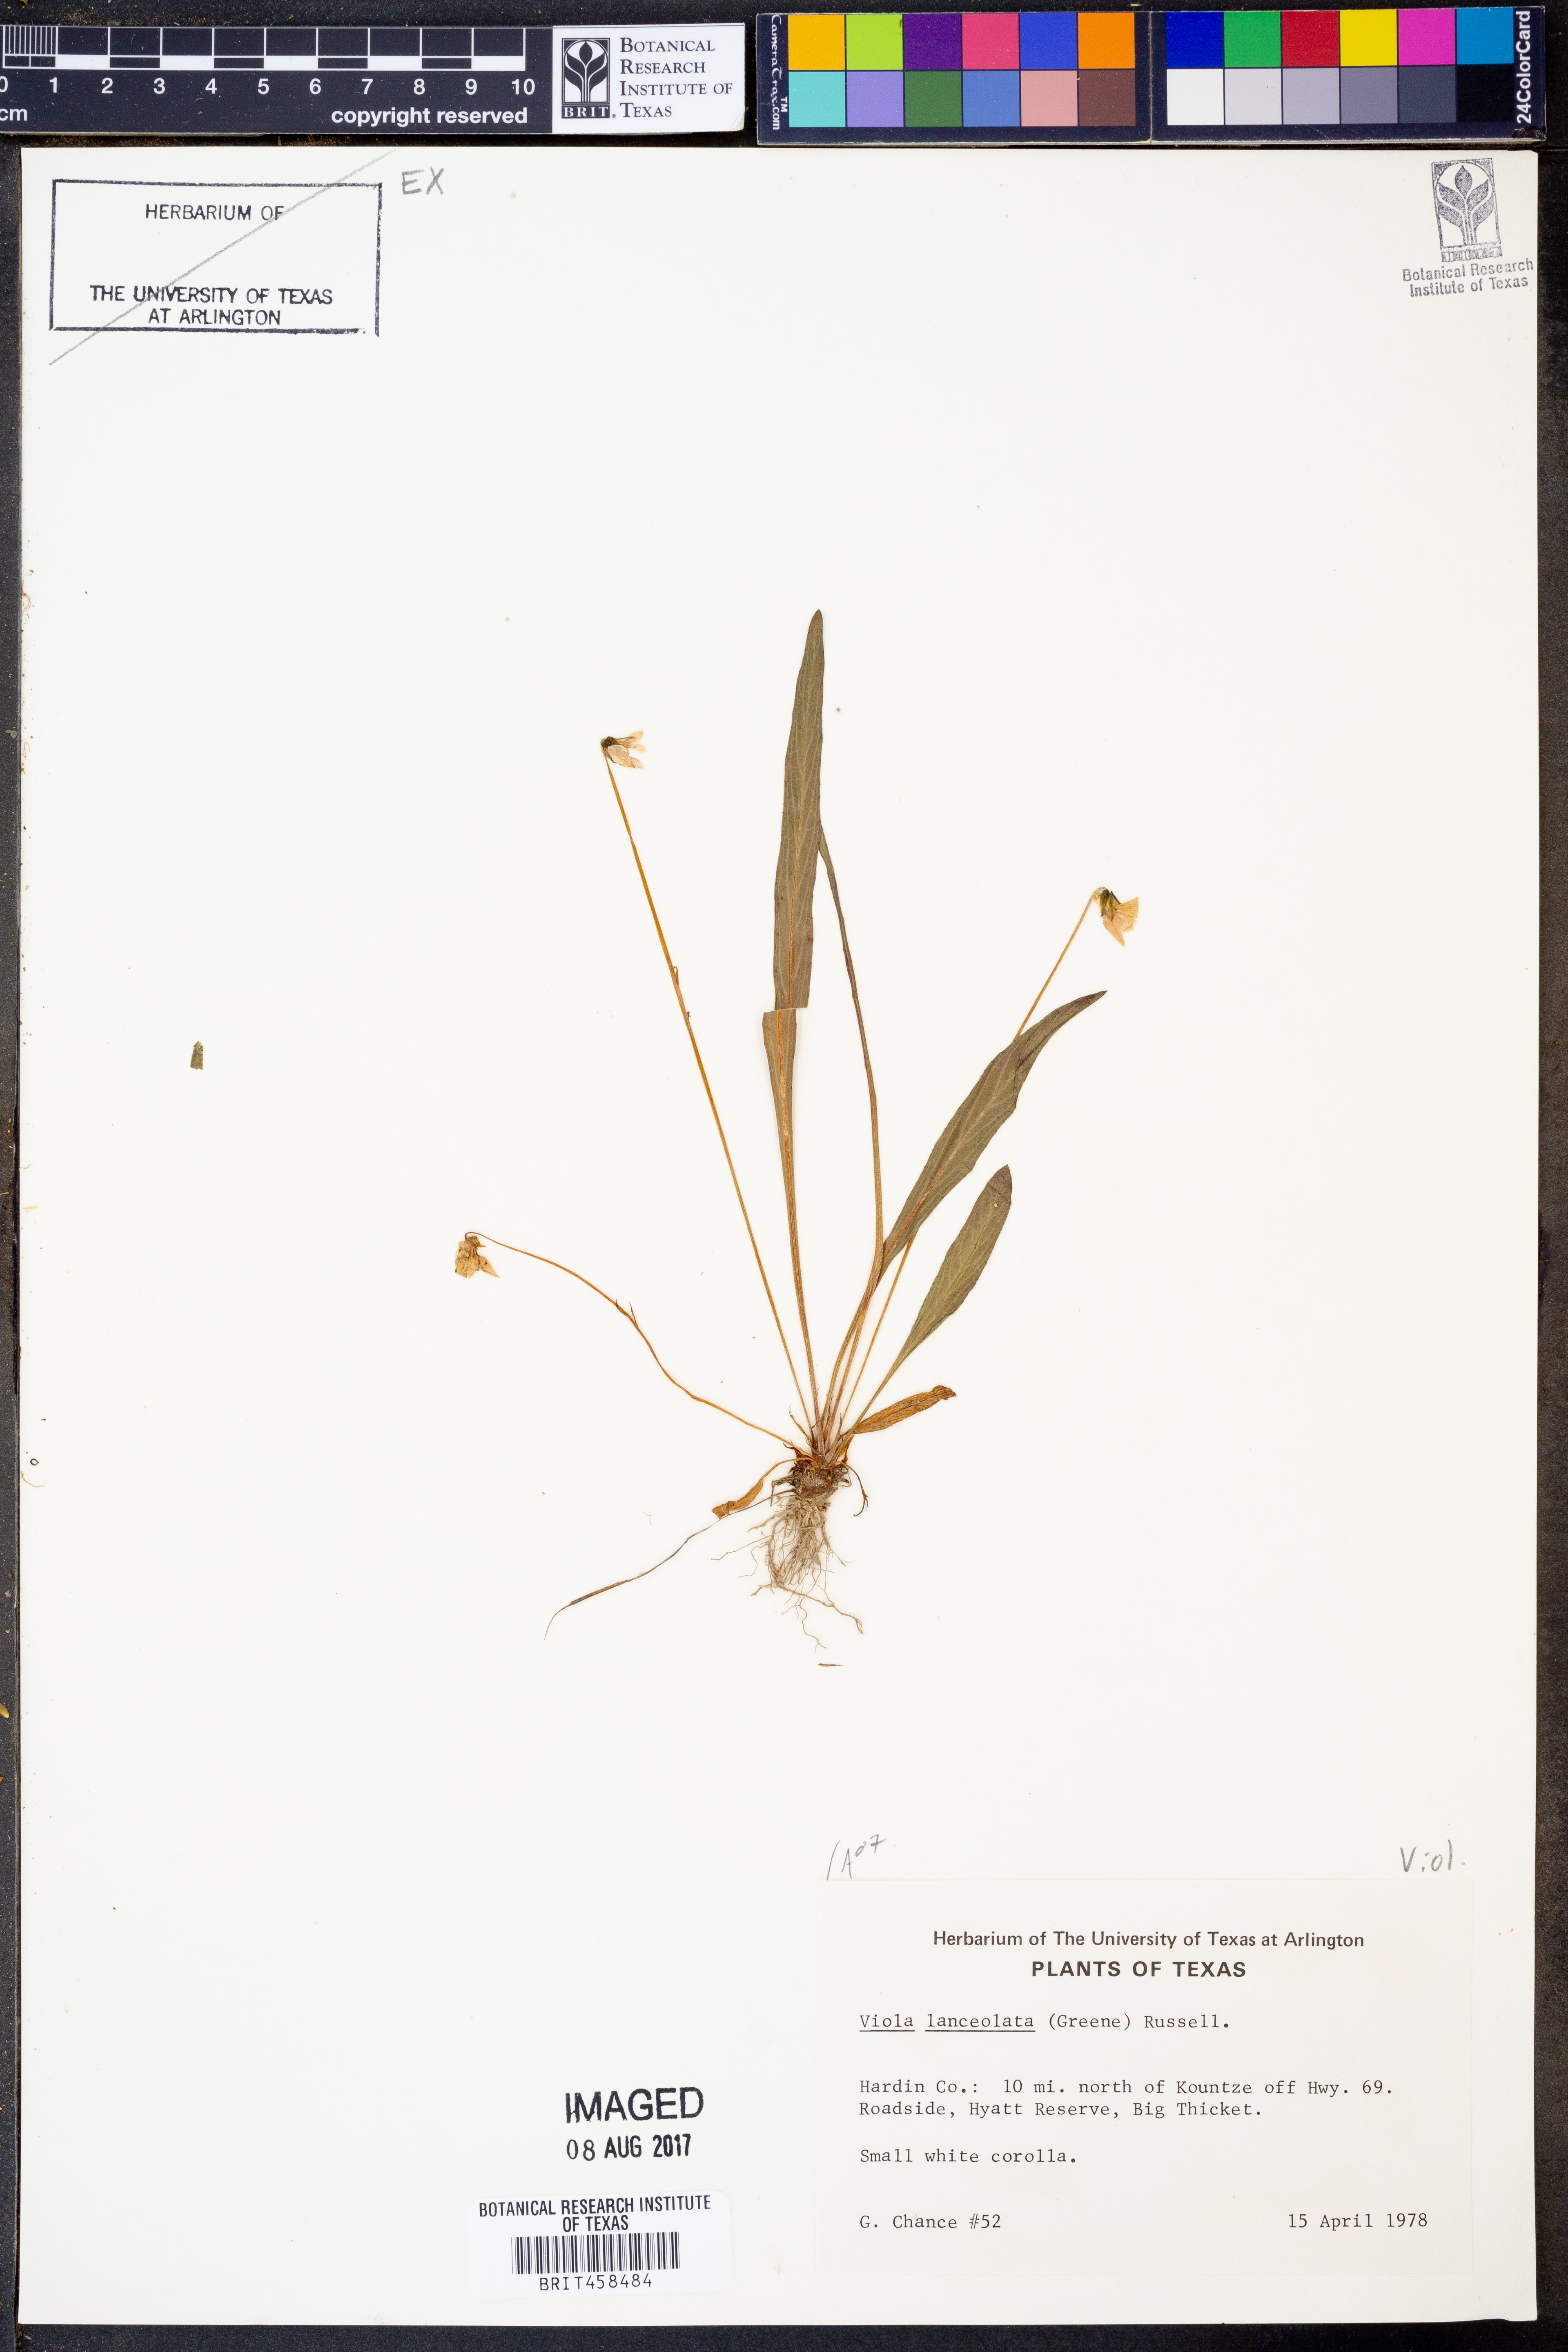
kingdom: Plantae
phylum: Tracheophyta
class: Magnoliopsida
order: Malpighiales
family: Violaceae
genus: Viola
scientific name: Viola lanceolata
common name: Bog white violet
